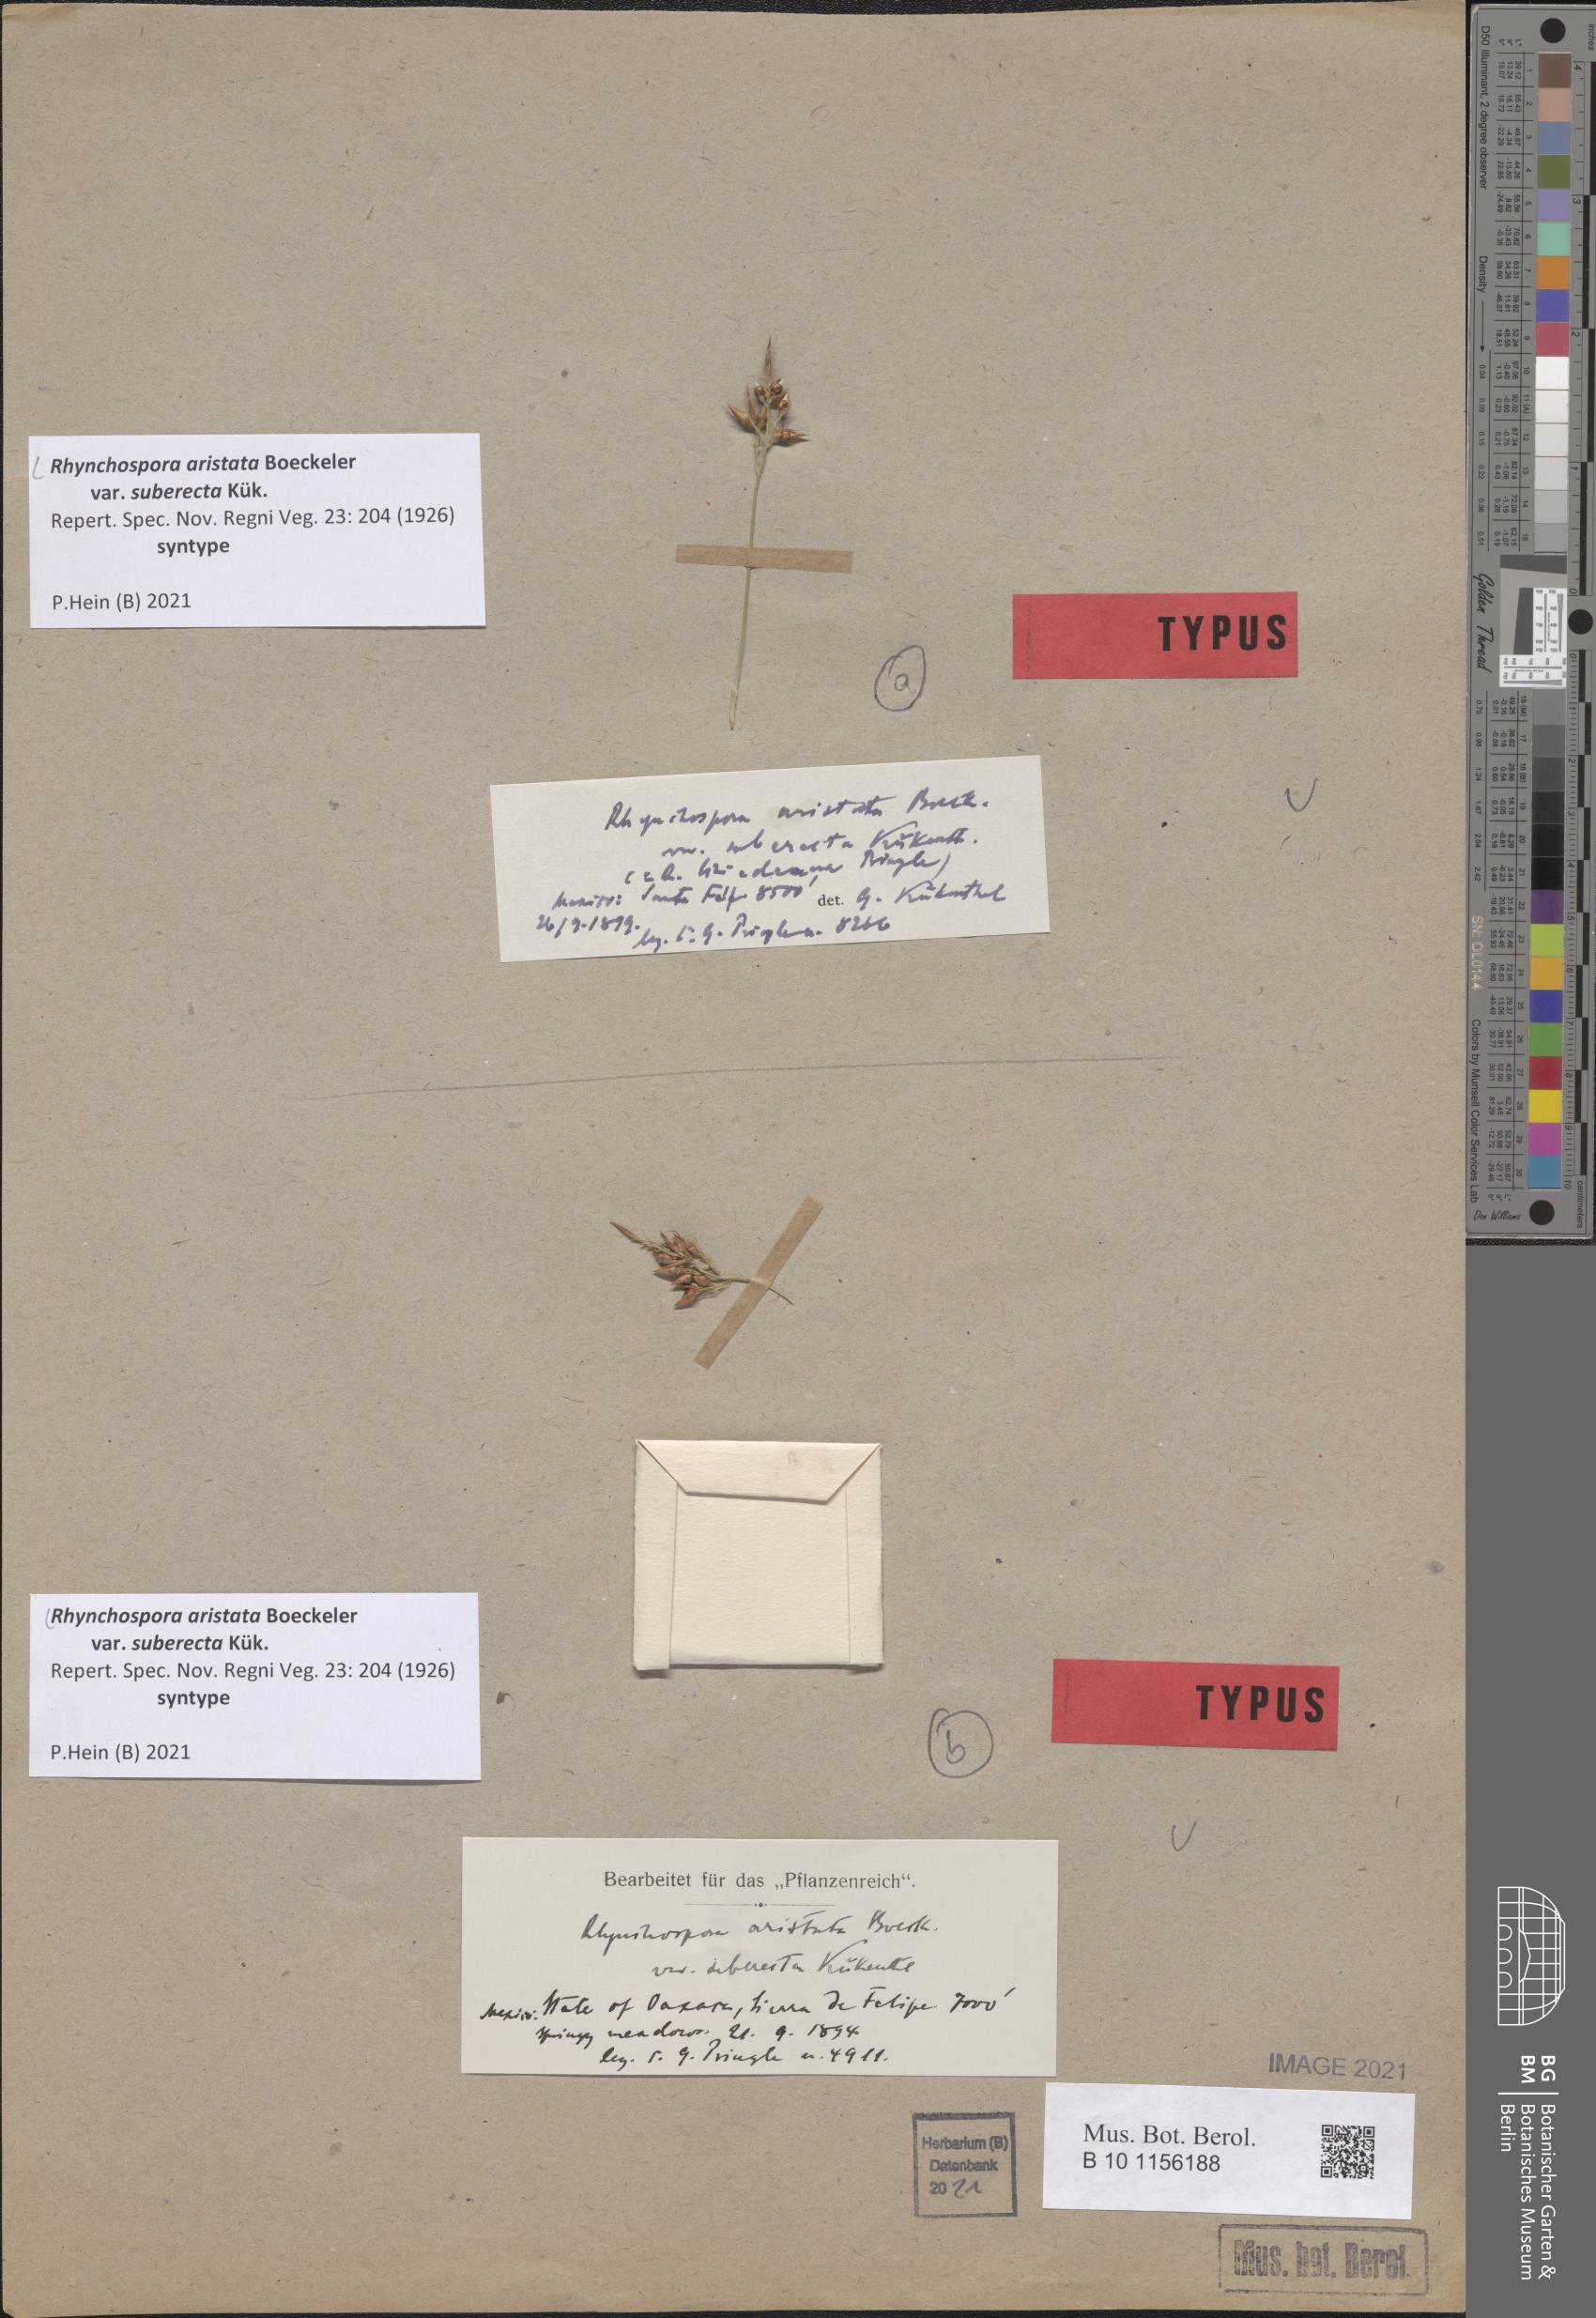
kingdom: Plantae
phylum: Tracheophyta
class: Liliopsida
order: Poales
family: Cyperaceae
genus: Rhynchospora
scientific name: Rhynchospora aristata
